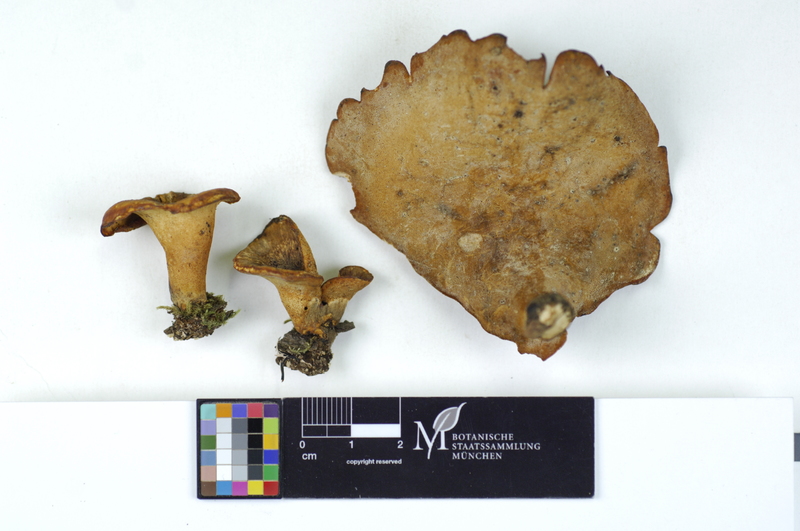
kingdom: Plantae
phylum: Tracheophyta
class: Magnoliopsida
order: Fagales
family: Fagaceae
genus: Fagus
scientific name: Fagus sylvatica
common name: Beech
